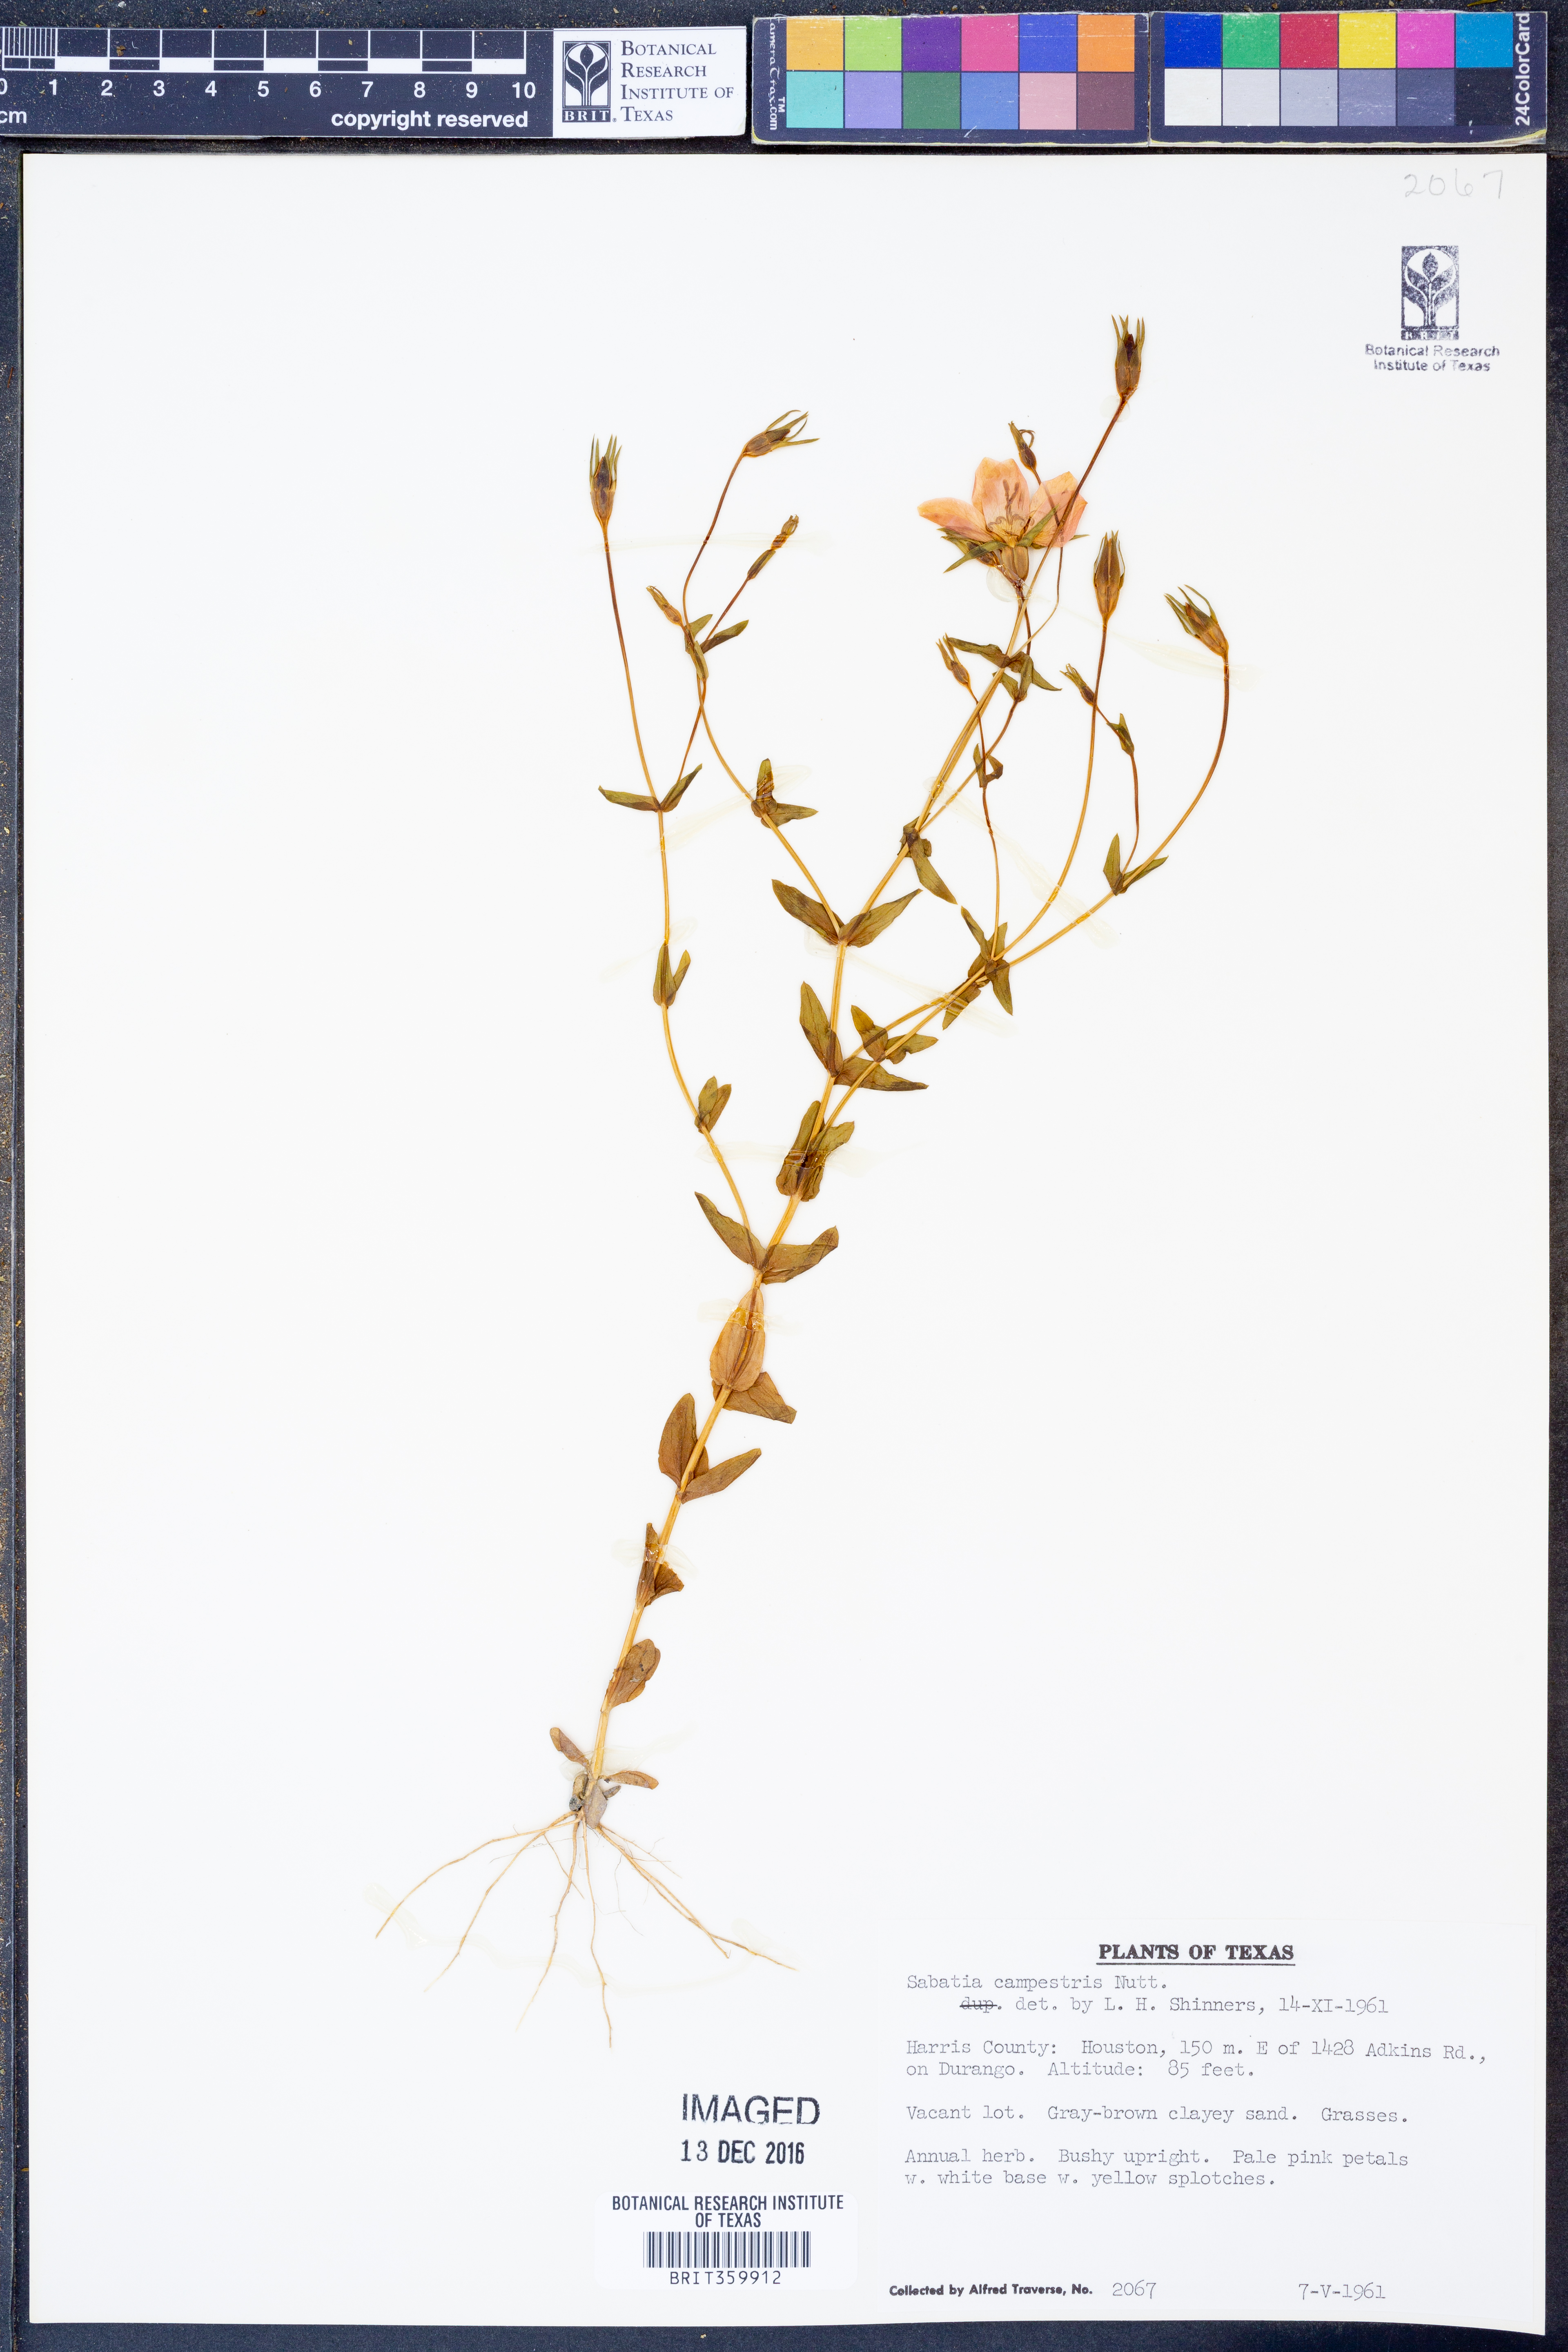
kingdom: Plantae
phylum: Tracheophyta
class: Magnoliopsida
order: Gentianales
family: Gentianaceae
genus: Sabatia
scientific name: Sabatia campestris
